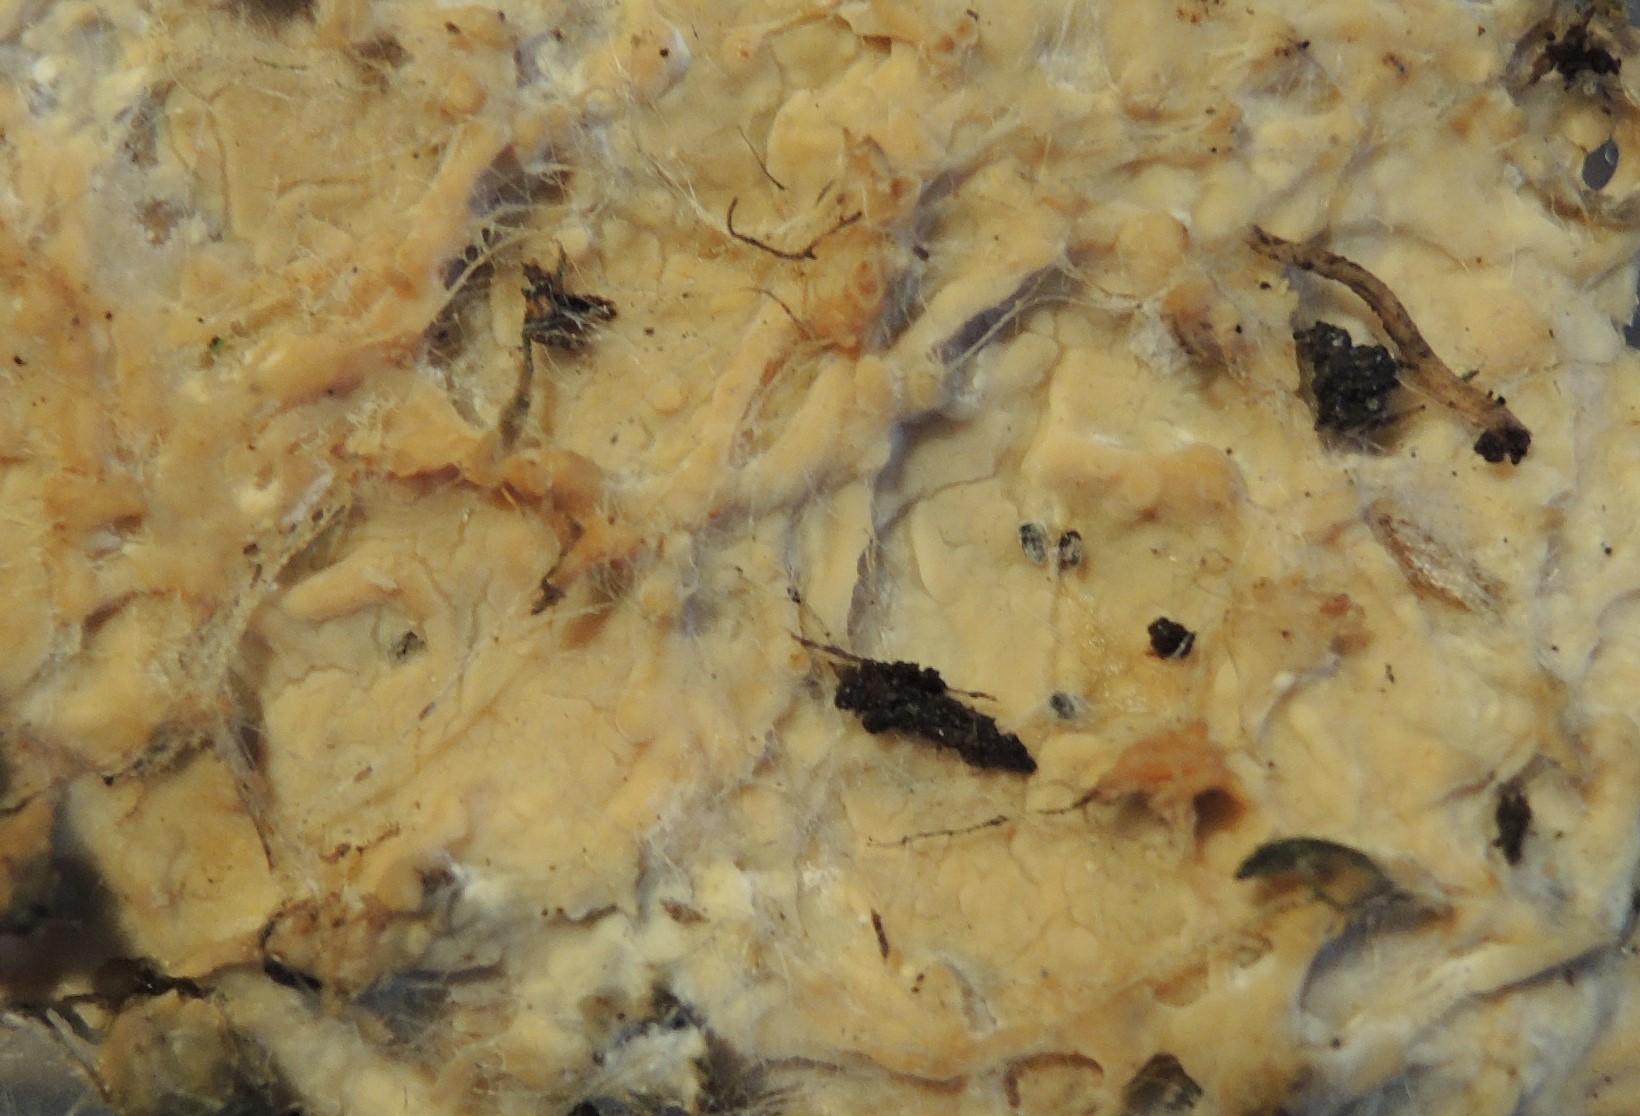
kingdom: Fungi
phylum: Basidiomycota
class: Agaricomycetes
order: Polyporales
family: Phanerochaetaceae
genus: Phanerochaete
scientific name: Phanerochaete velutina
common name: dunet randtråd
